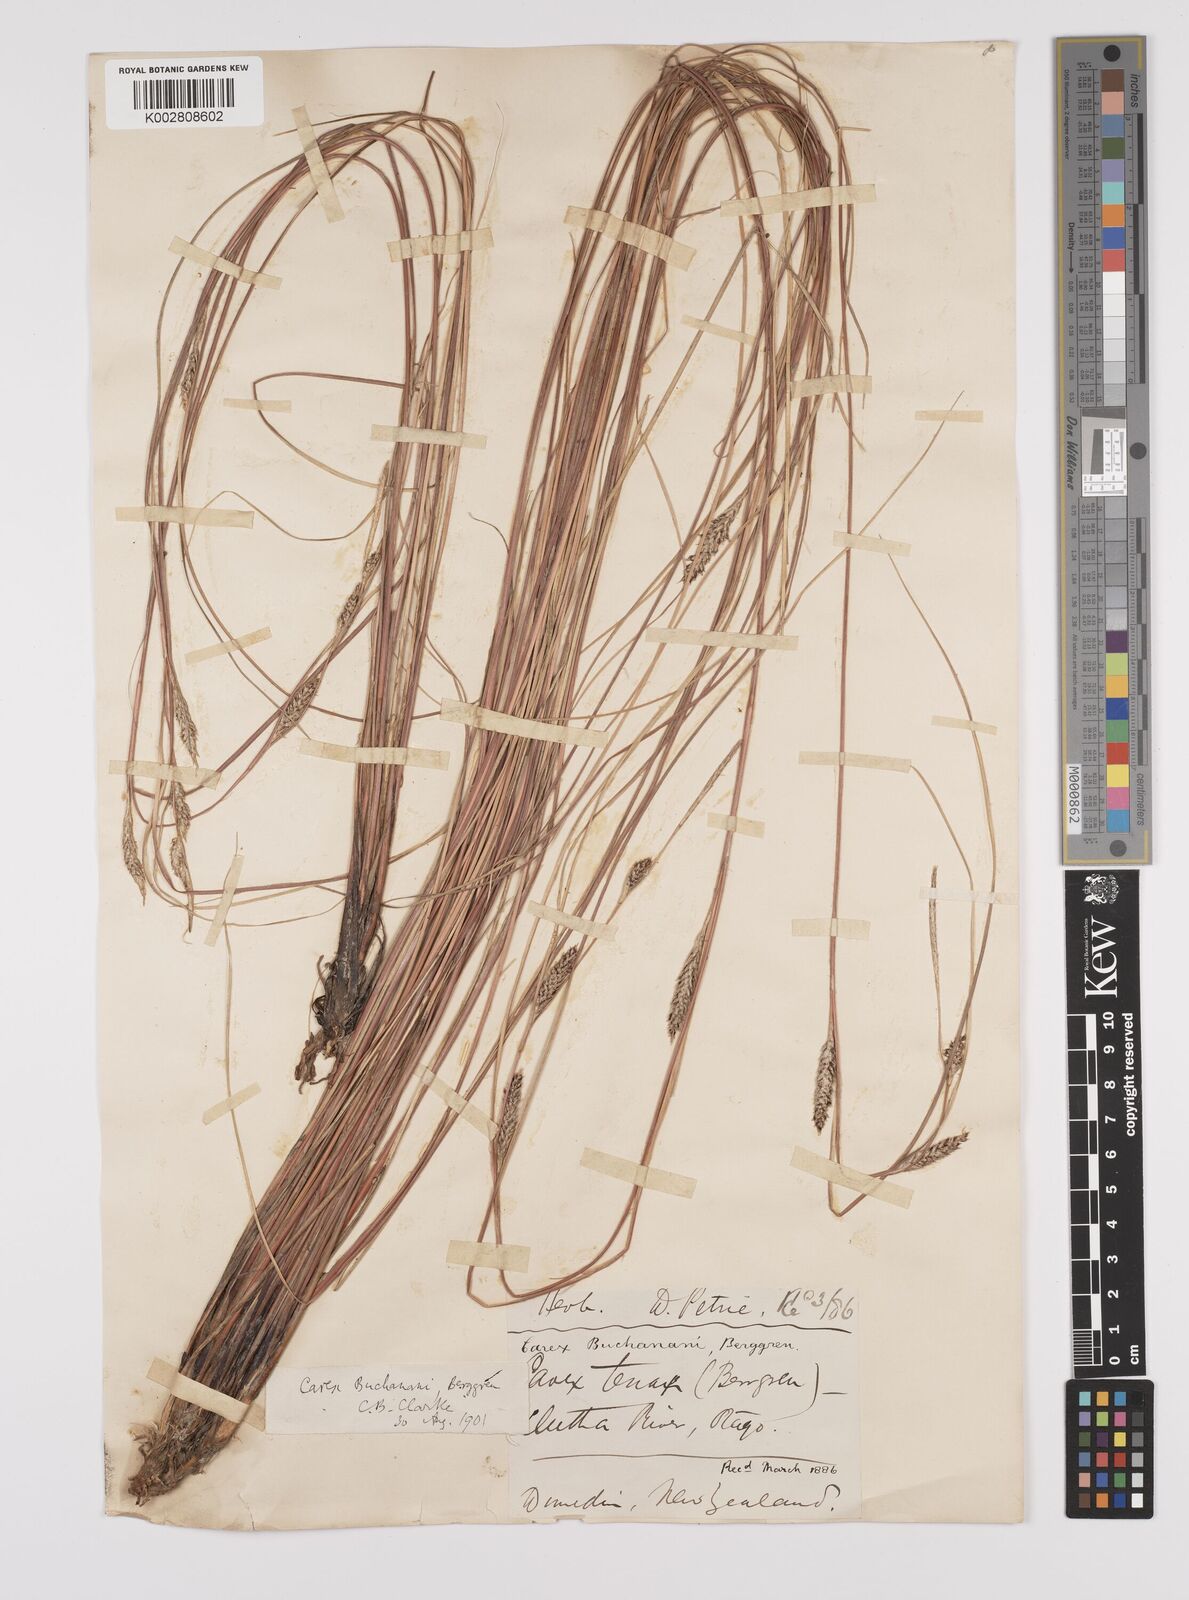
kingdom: Plantae
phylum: Tracheophyta
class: Liliopsida
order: Poales
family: Cyperaceae
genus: Carex
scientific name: Carex flagellifera
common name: Glen murray tussock
